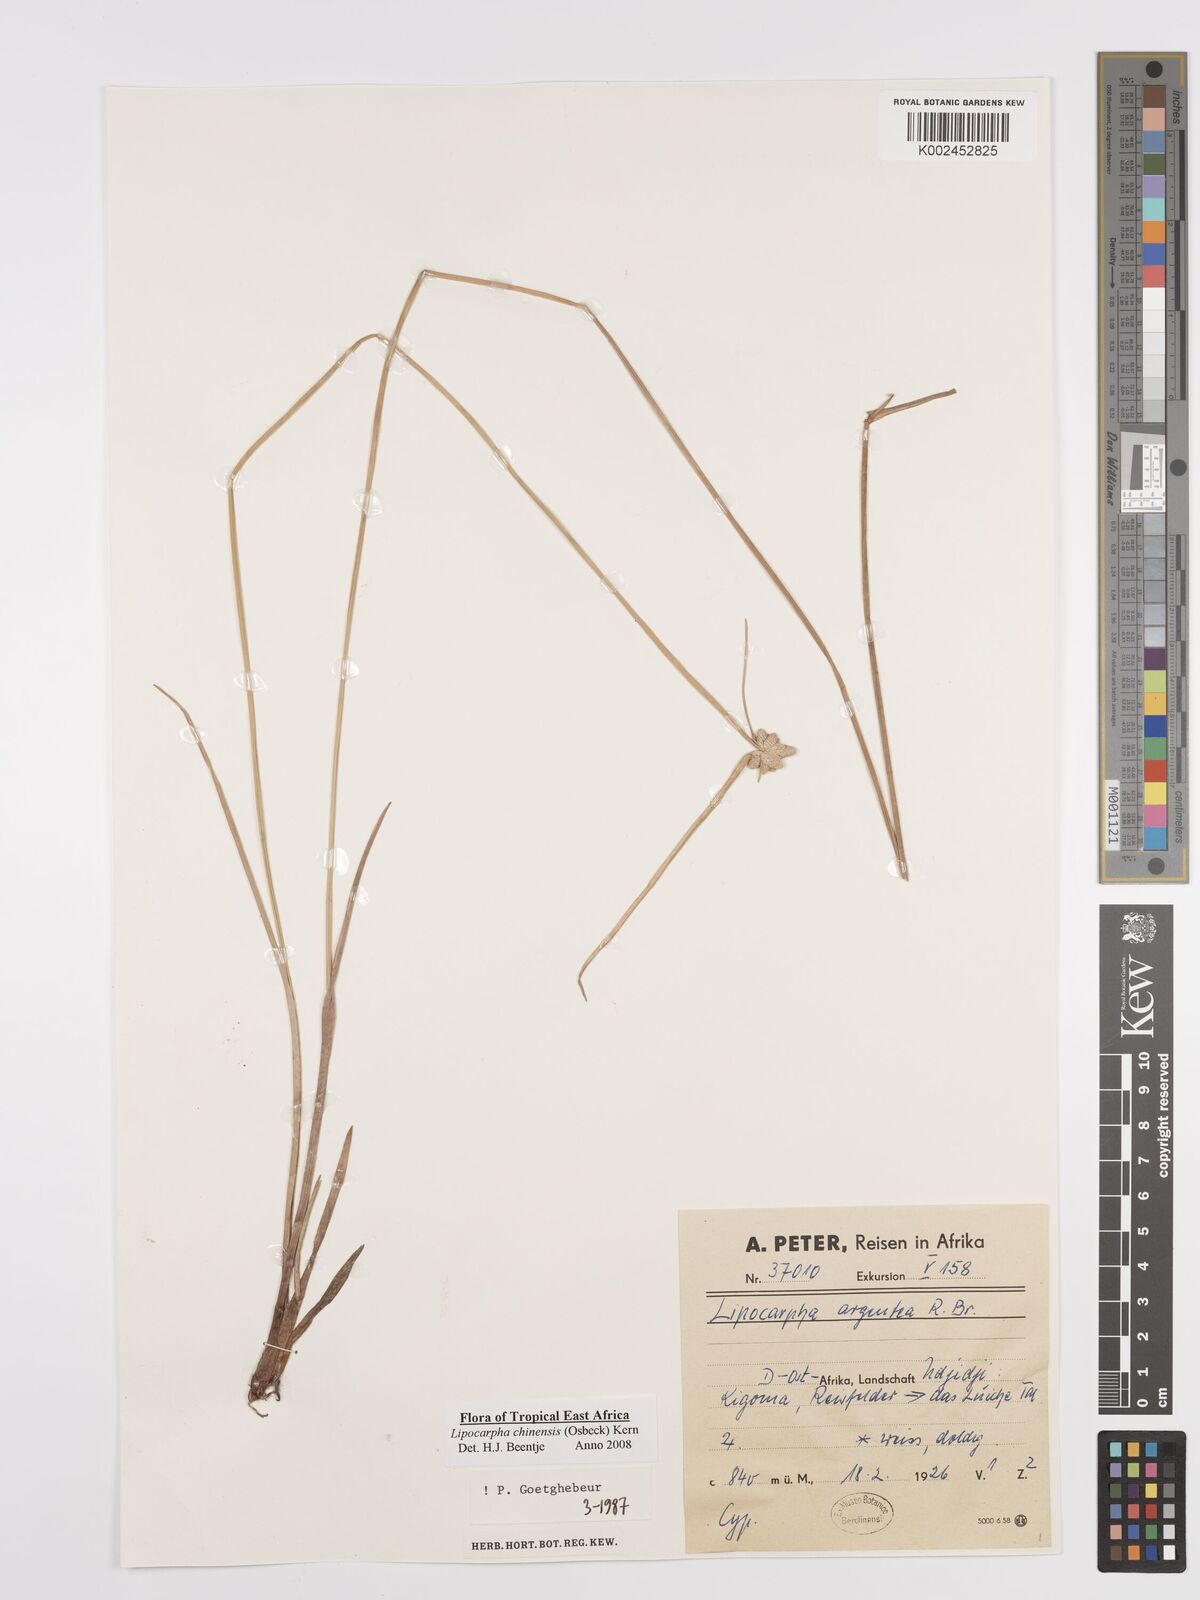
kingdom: Plantae
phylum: Tracheophyta
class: Liliopsida
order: Poales
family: Cyperaceae
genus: Cyperus
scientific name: Cyperus
